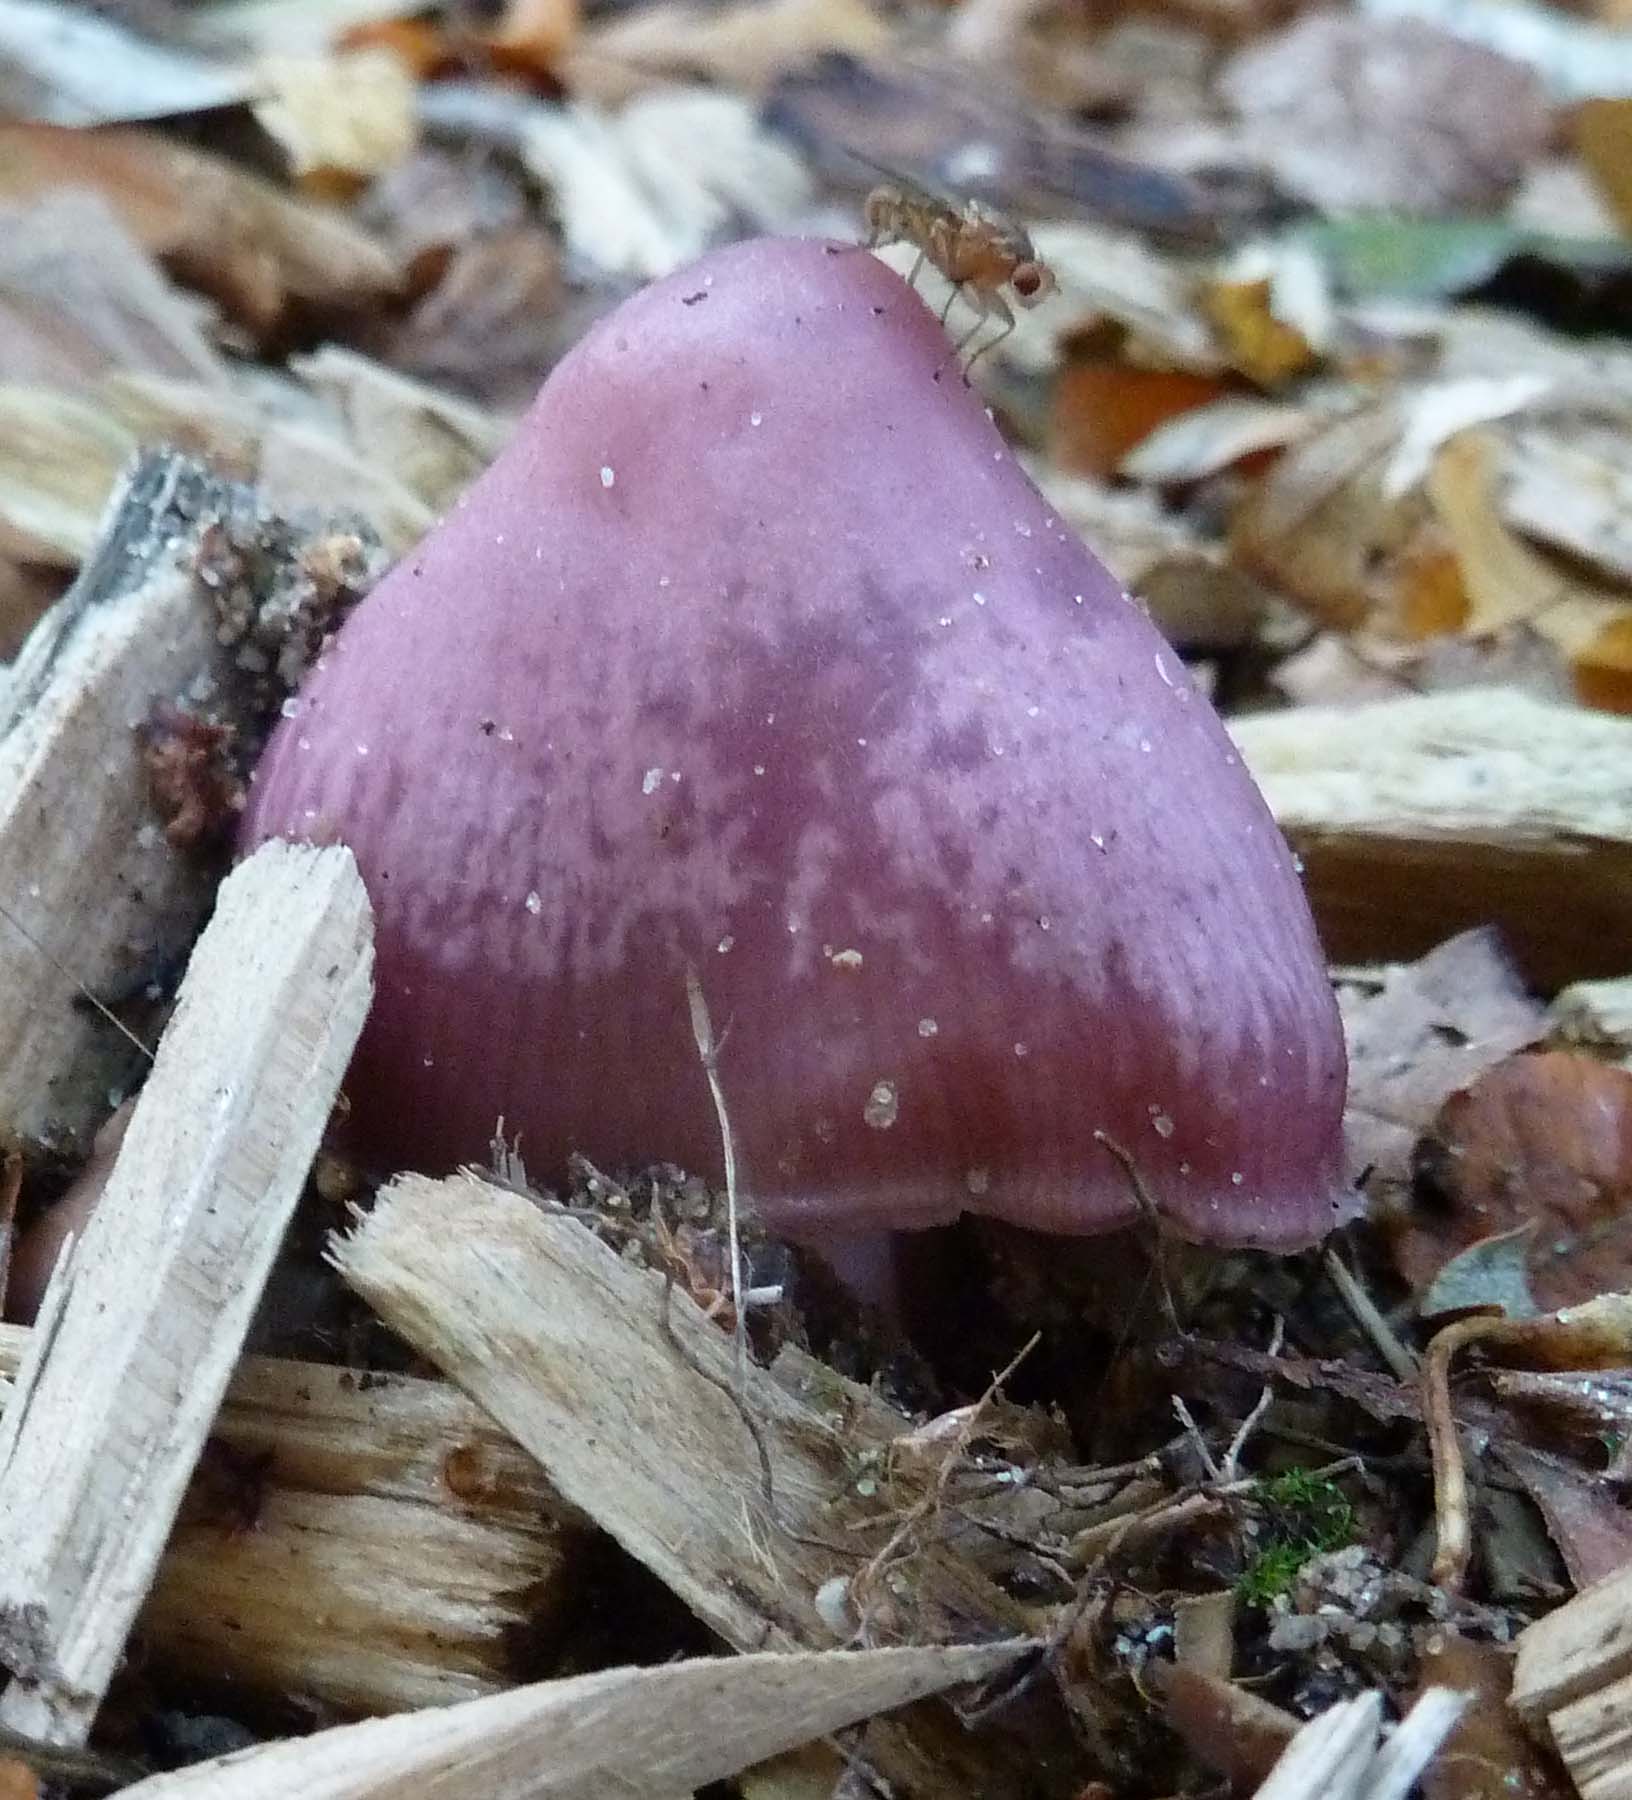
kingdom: Fungi
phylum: Basidiomycota
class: Agaricomycetes
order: Agaricales
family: Mycenaceae
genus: Mycena
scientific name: Mycena rosea
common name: rosa huesvamp
